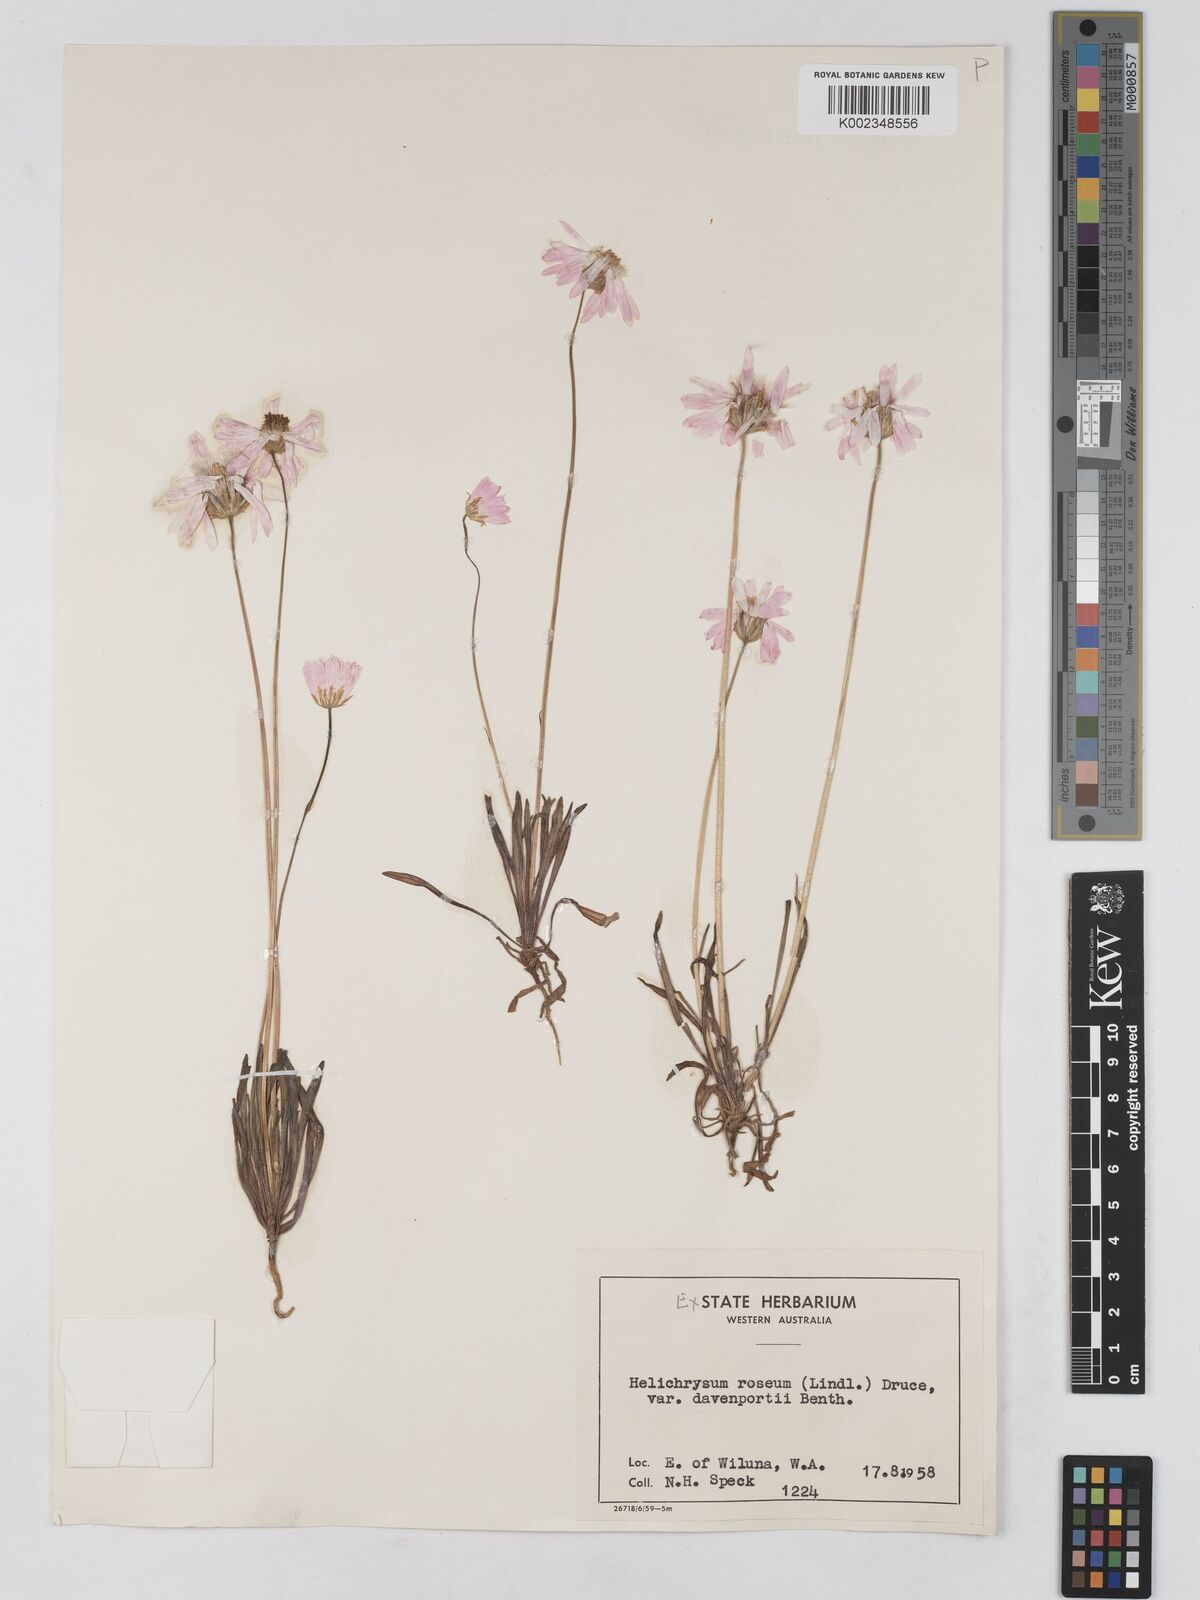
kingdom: Plantae
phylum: Tracheophyta
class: Magnoliopsida
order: Asterales
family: Asteraceae
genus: Lawrencella
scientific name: Lawrencella davenportii
